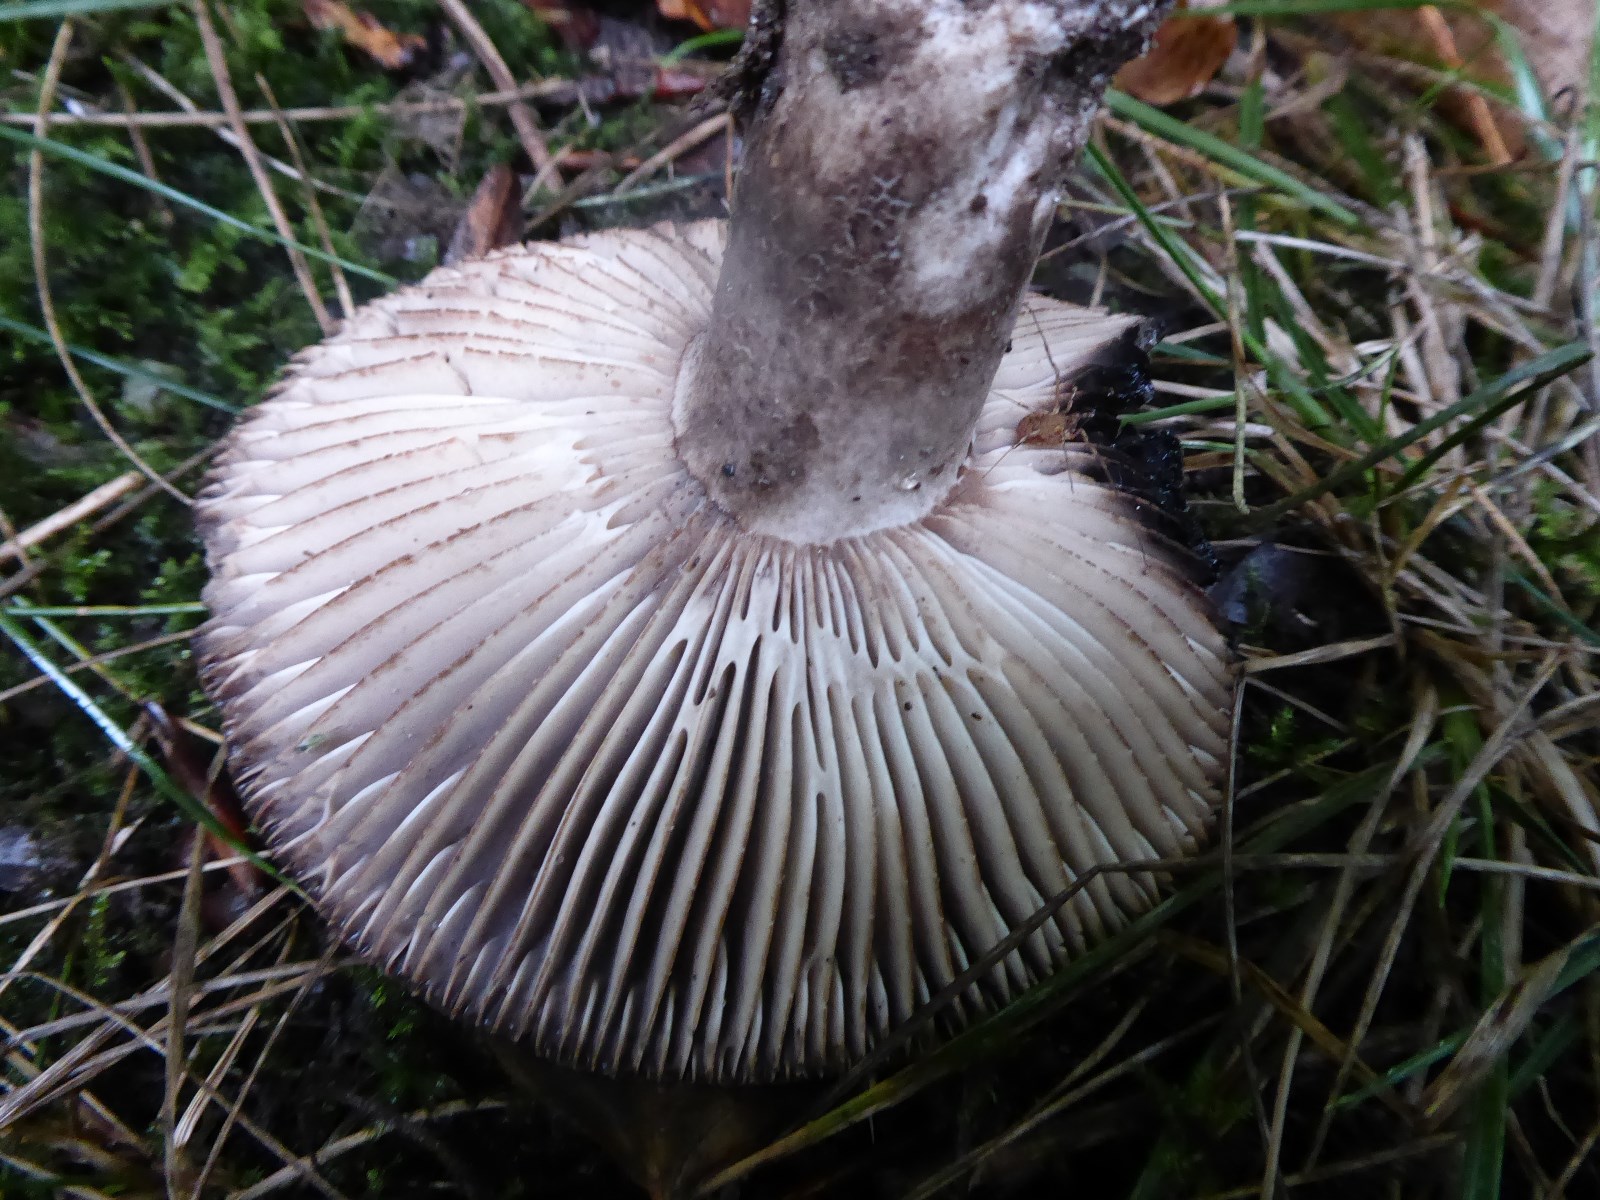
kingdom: Fungi
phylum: Basidiomycota
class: Agaricomycetes
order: Russulales
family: Russulaceae
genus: Russula
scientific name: Russula adusta
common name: sværtende skørhat
